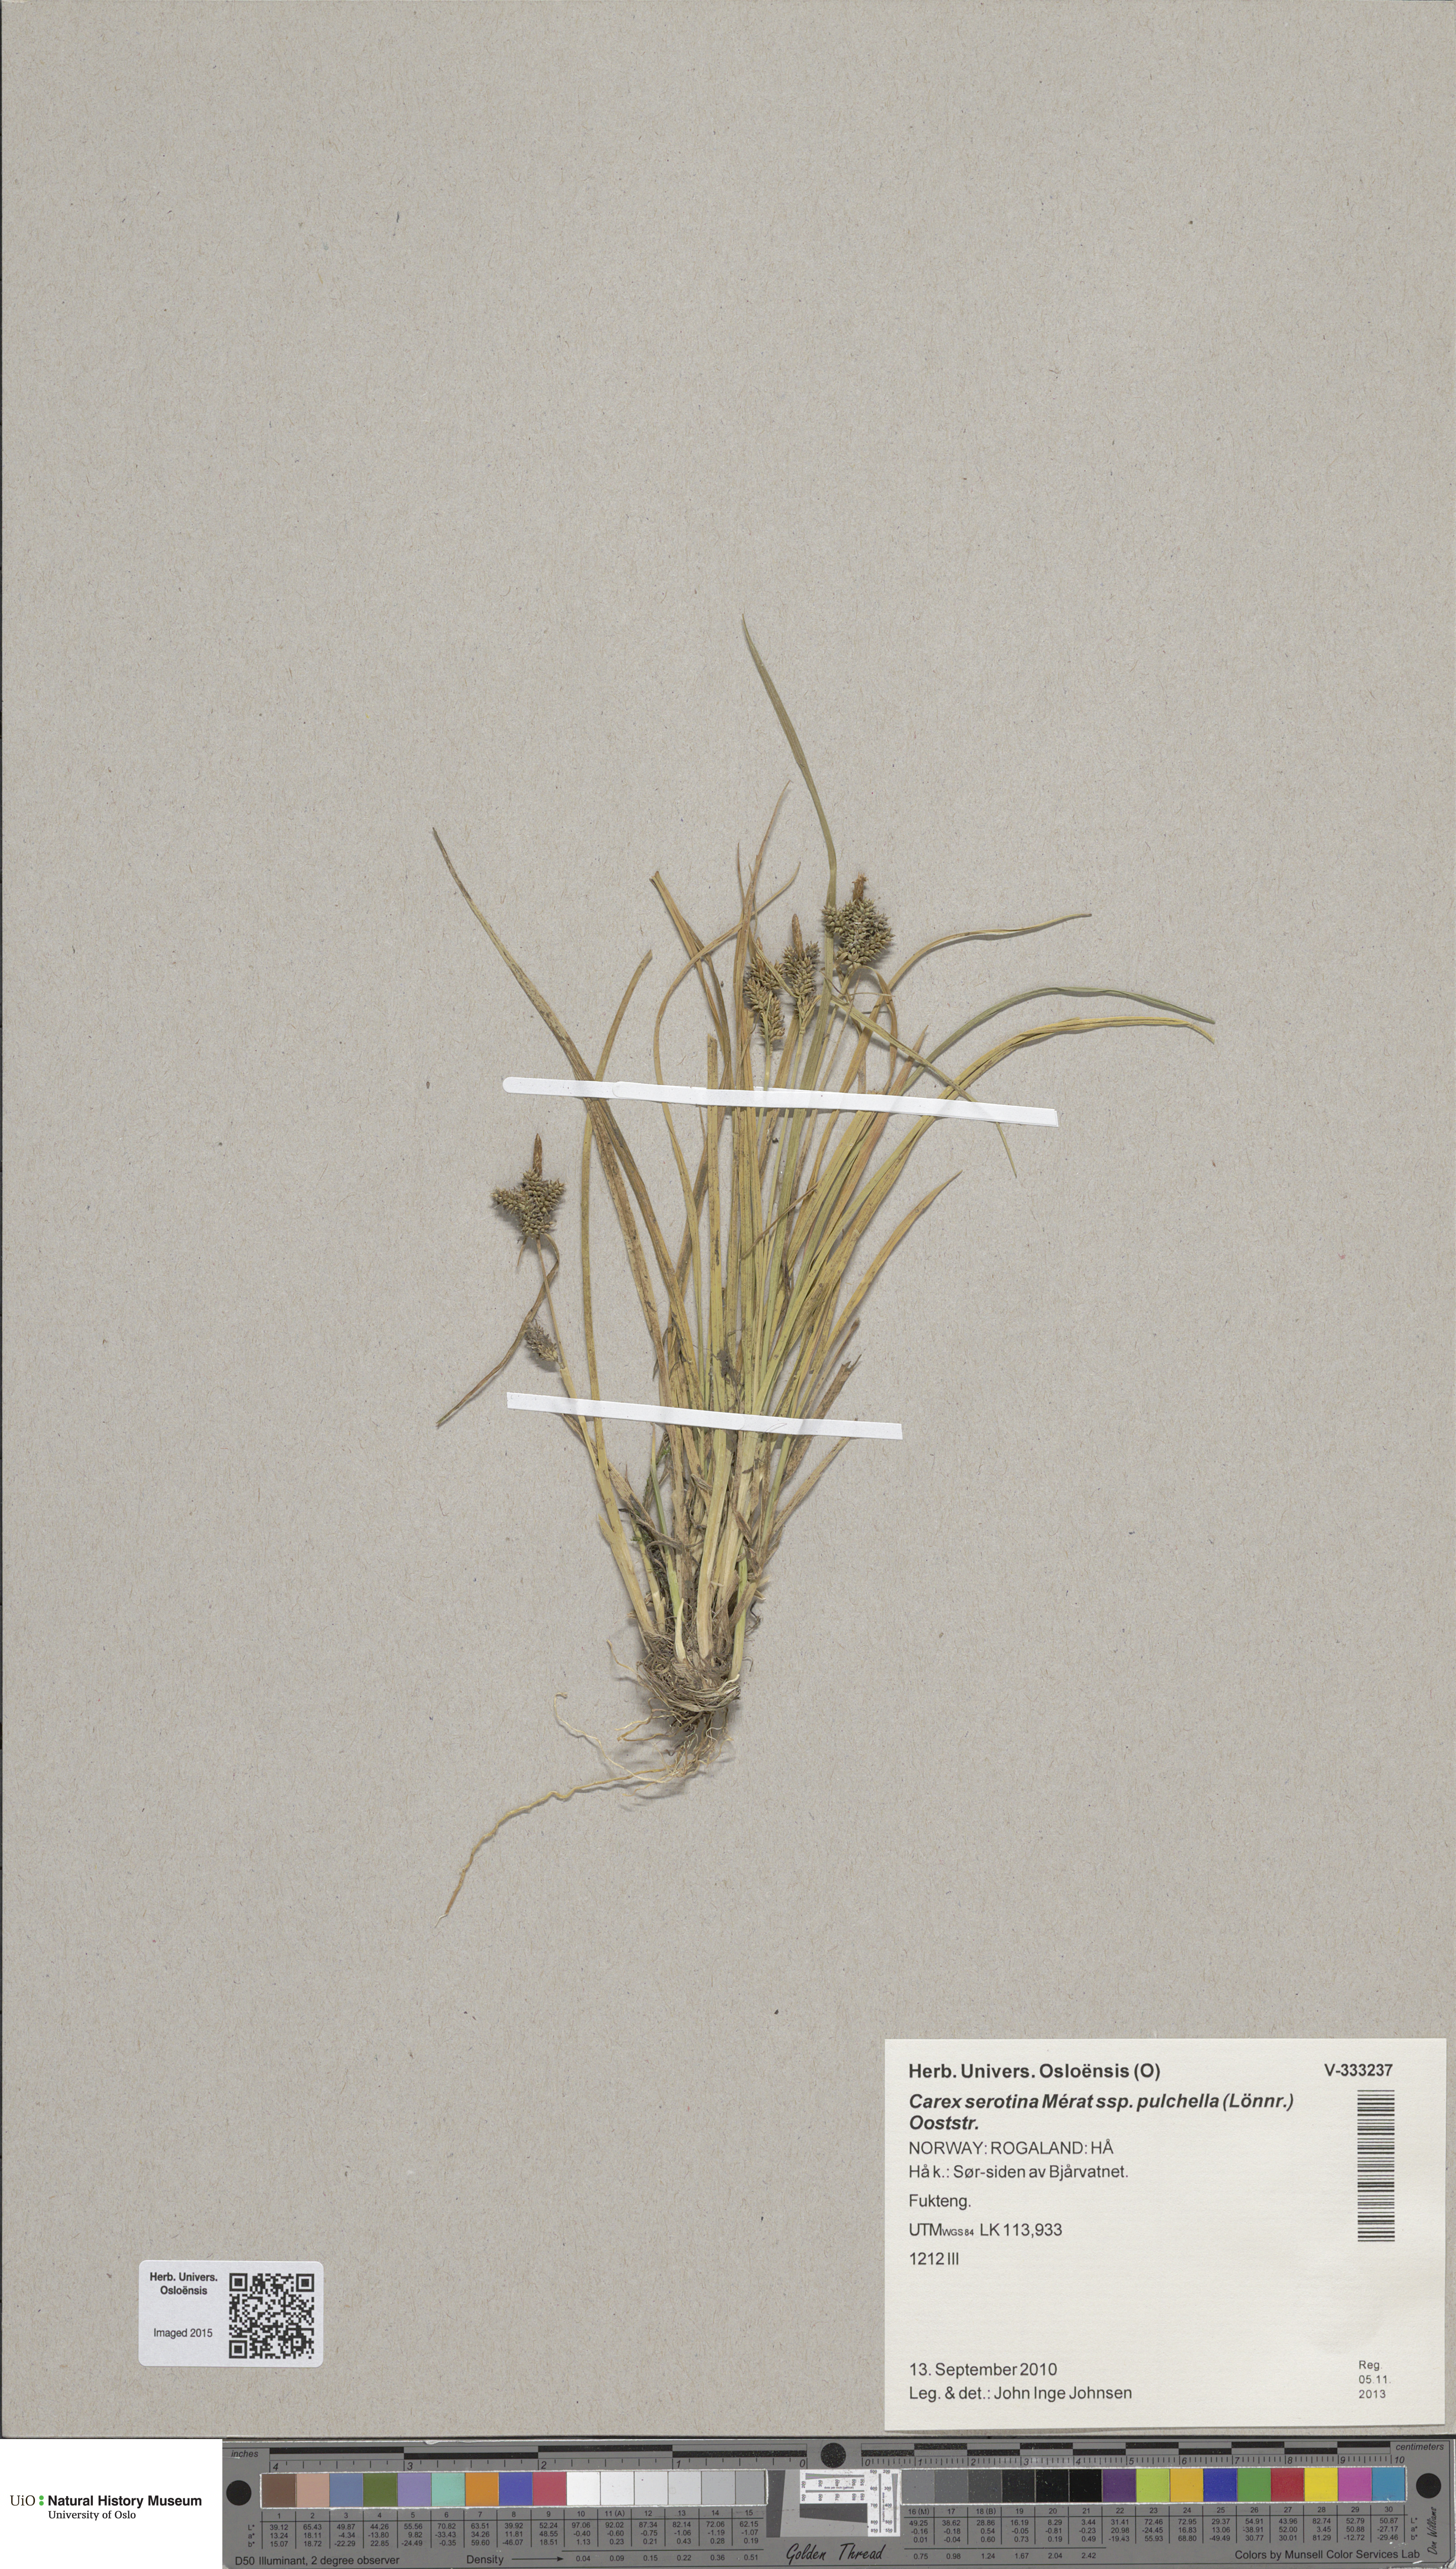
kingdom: Plantae
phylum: Tracheophyta
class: Liliopsida
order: Poales
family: Cyperaceae
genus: Carex
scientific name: Carex oederi
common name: Common & small-fruited yellow-sedge
